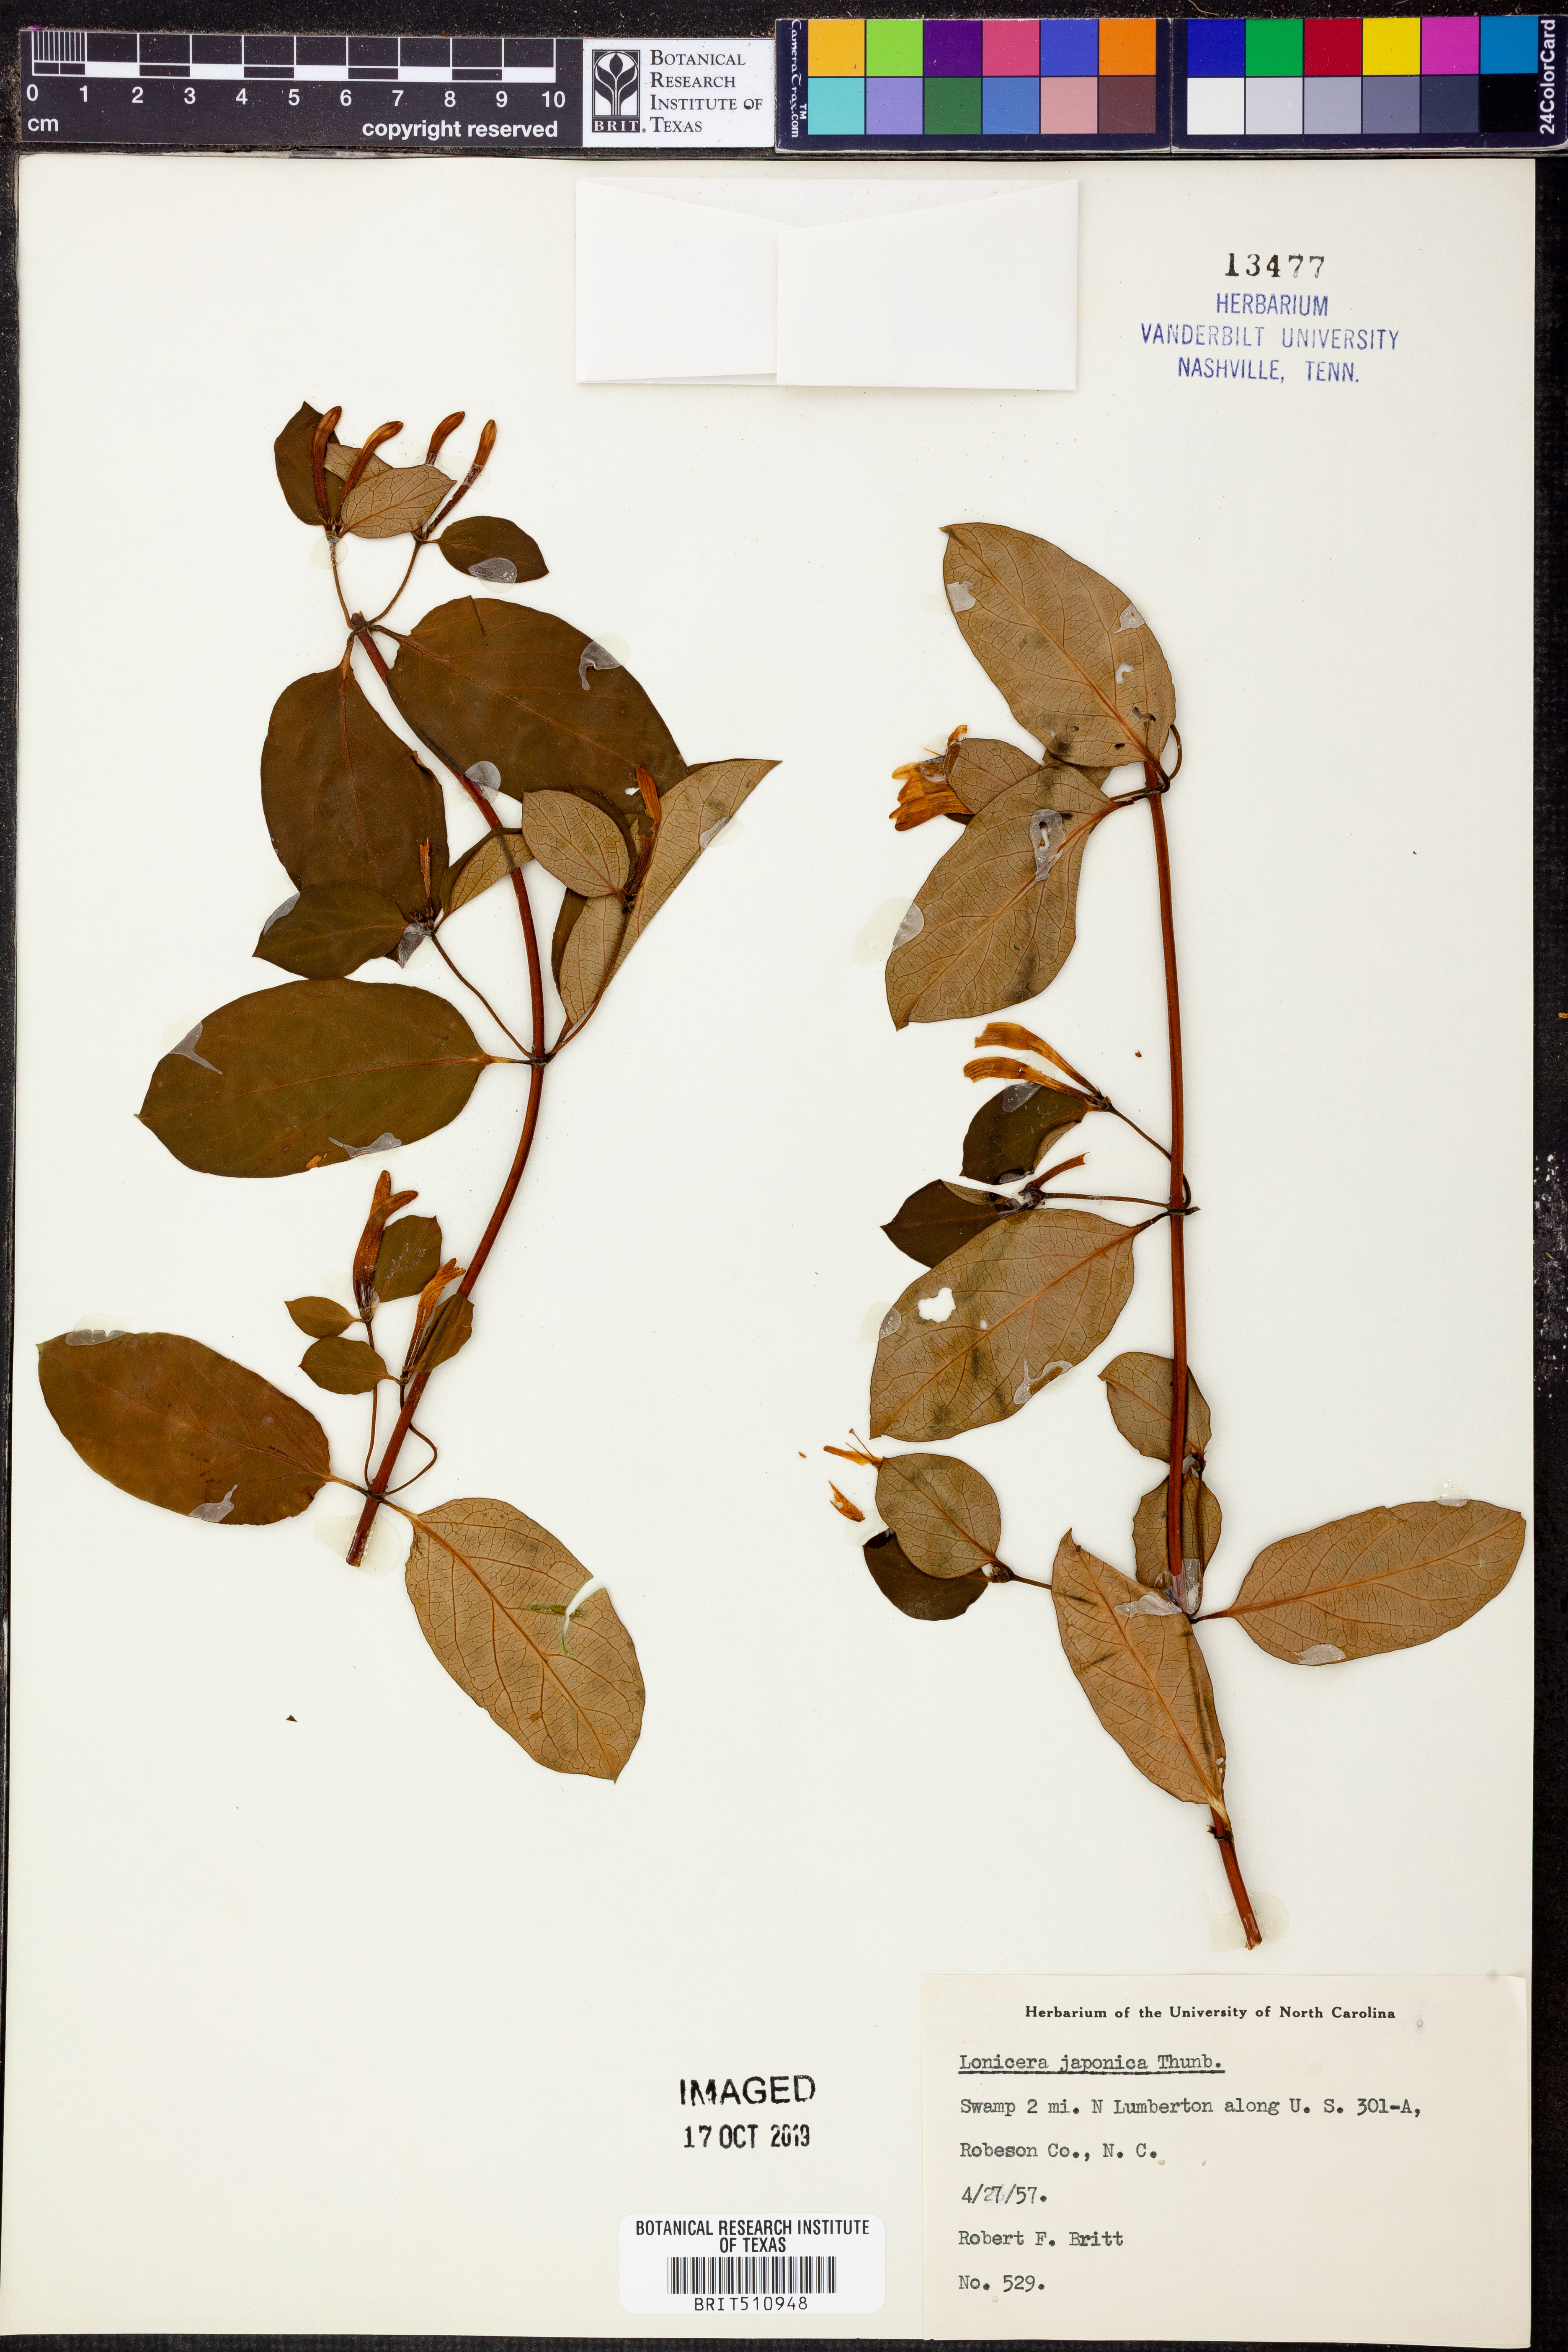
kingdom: Plantae
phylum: Tracheophyta
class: Magnoliopsida
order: Dipsacales
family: Caprifoliaceae
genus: Lonicera
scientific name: Lonicera japonica
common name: Japanese honeysuckle
